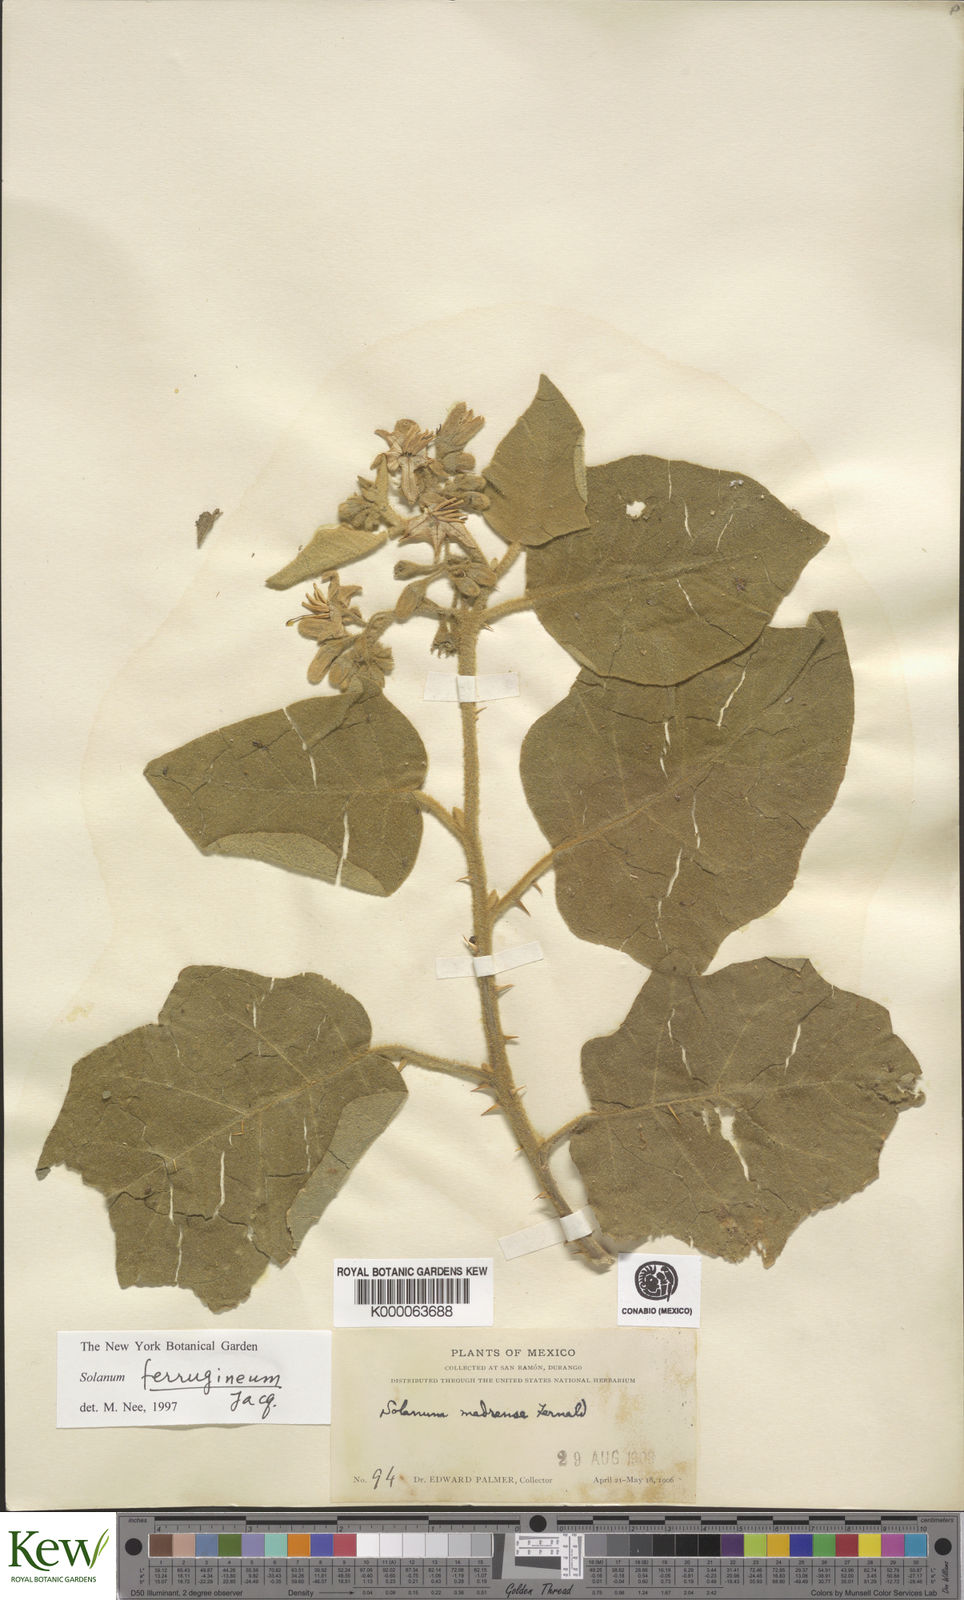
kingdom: Plantae
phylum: Tracheophyta
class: Magnoliopsida
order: Solanales
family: Solanaceae
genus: Solanum
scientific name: Solanum
